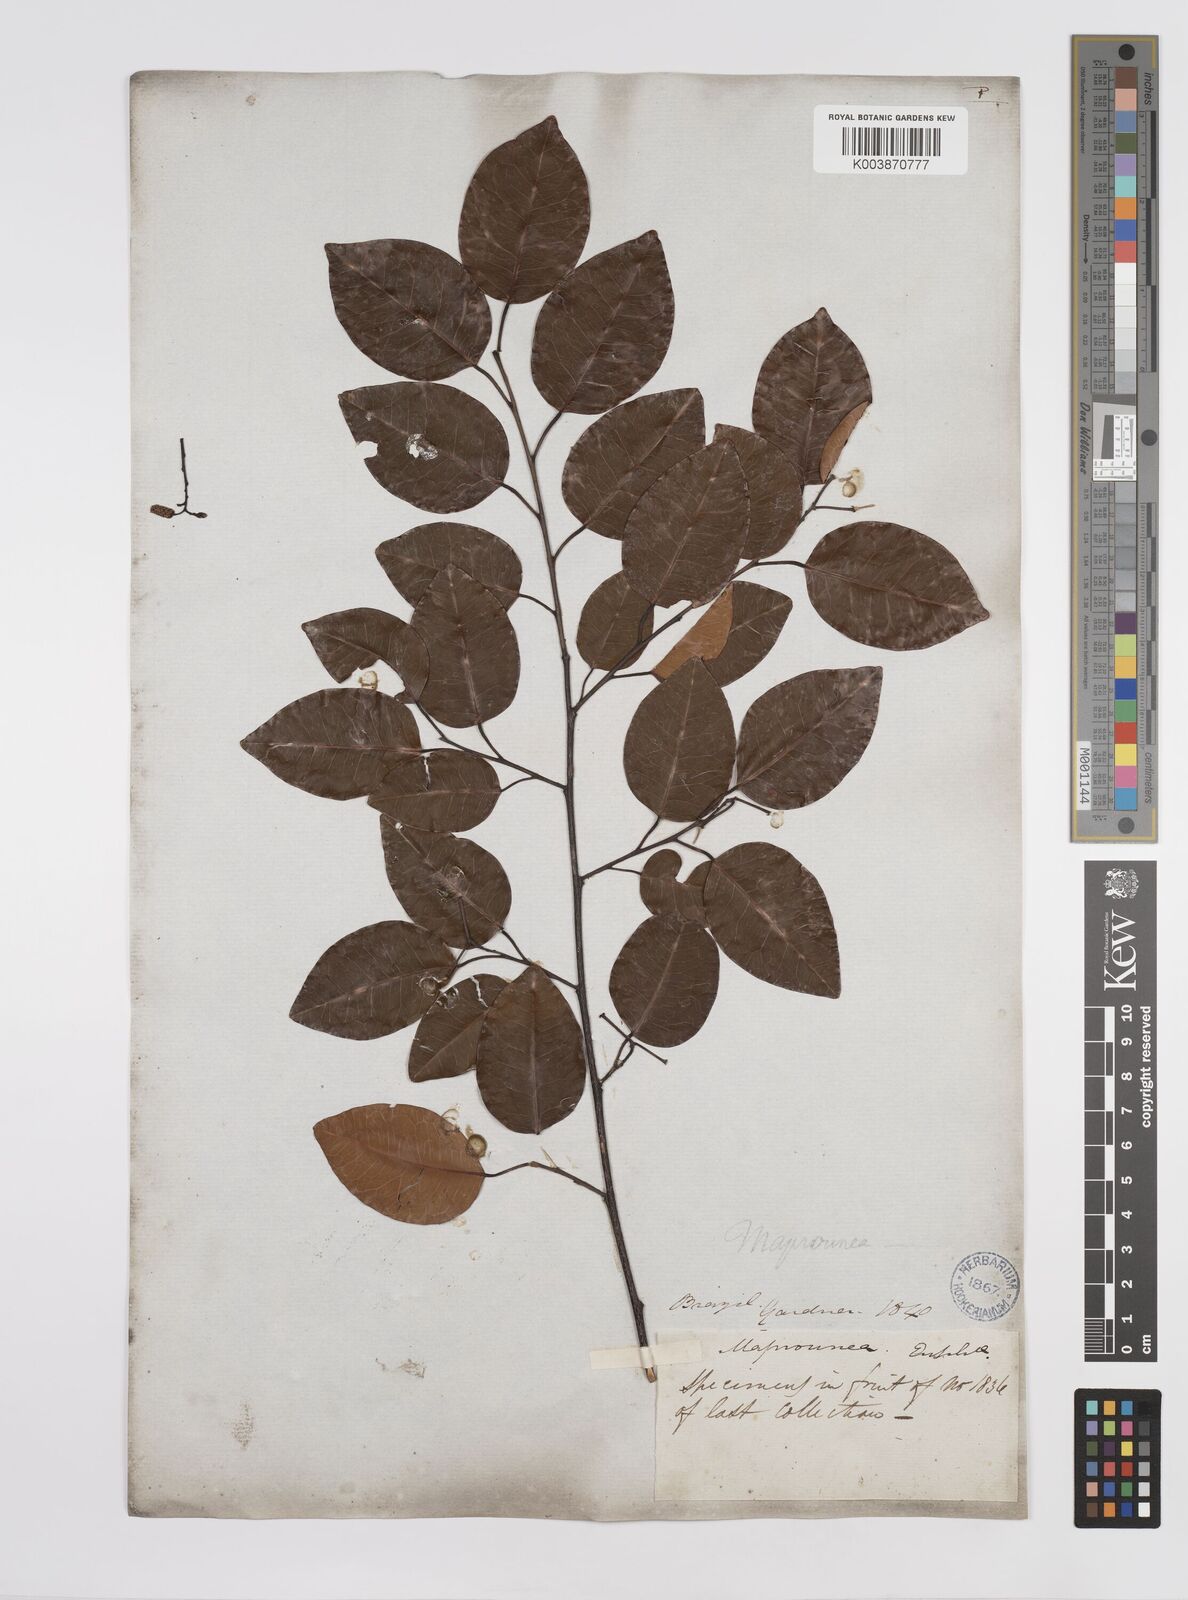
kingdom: Plantae
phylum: Tracheophyta
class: Magnoliopsida
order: Malpighiales
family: Euphorbiaceae
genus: Maprounea
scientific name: Maprounea guianensis
